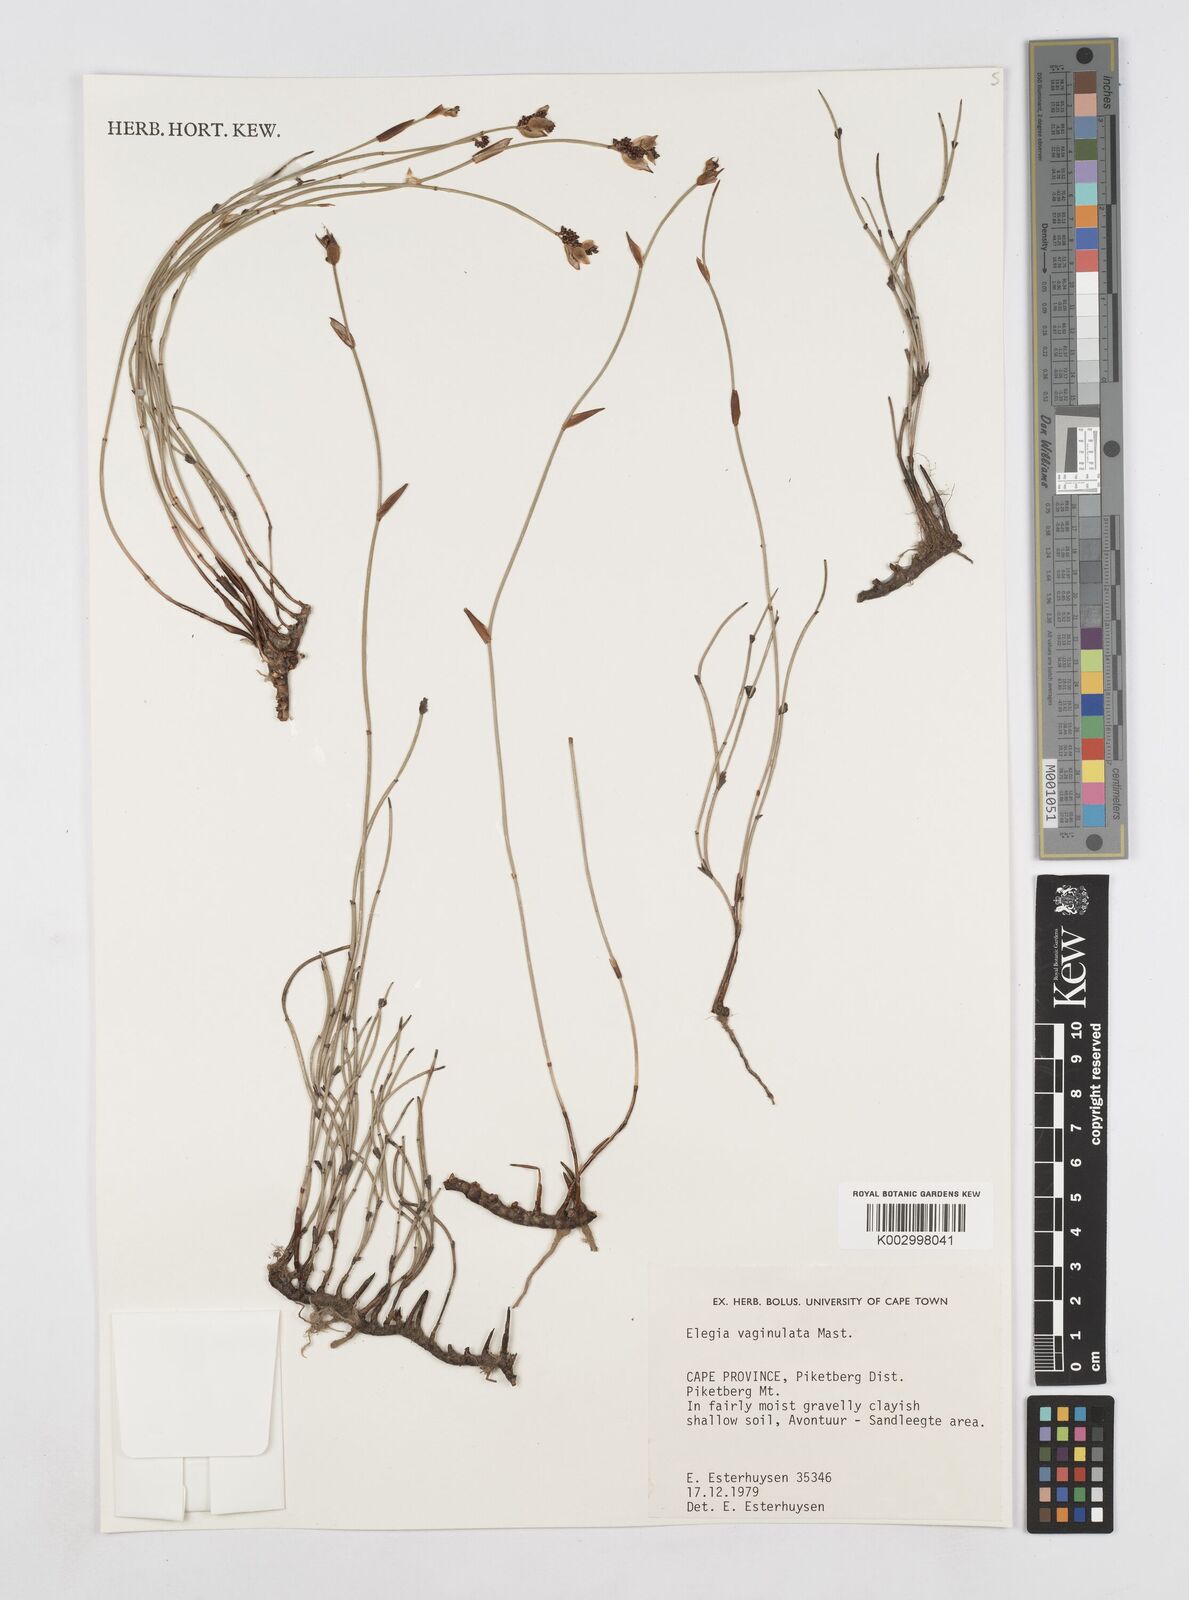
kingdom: Plantae
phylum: Tracheophyta
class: Liliopsida
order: Poales
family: Restionaceae
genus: Elegia
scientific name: Elegia vaginulata
